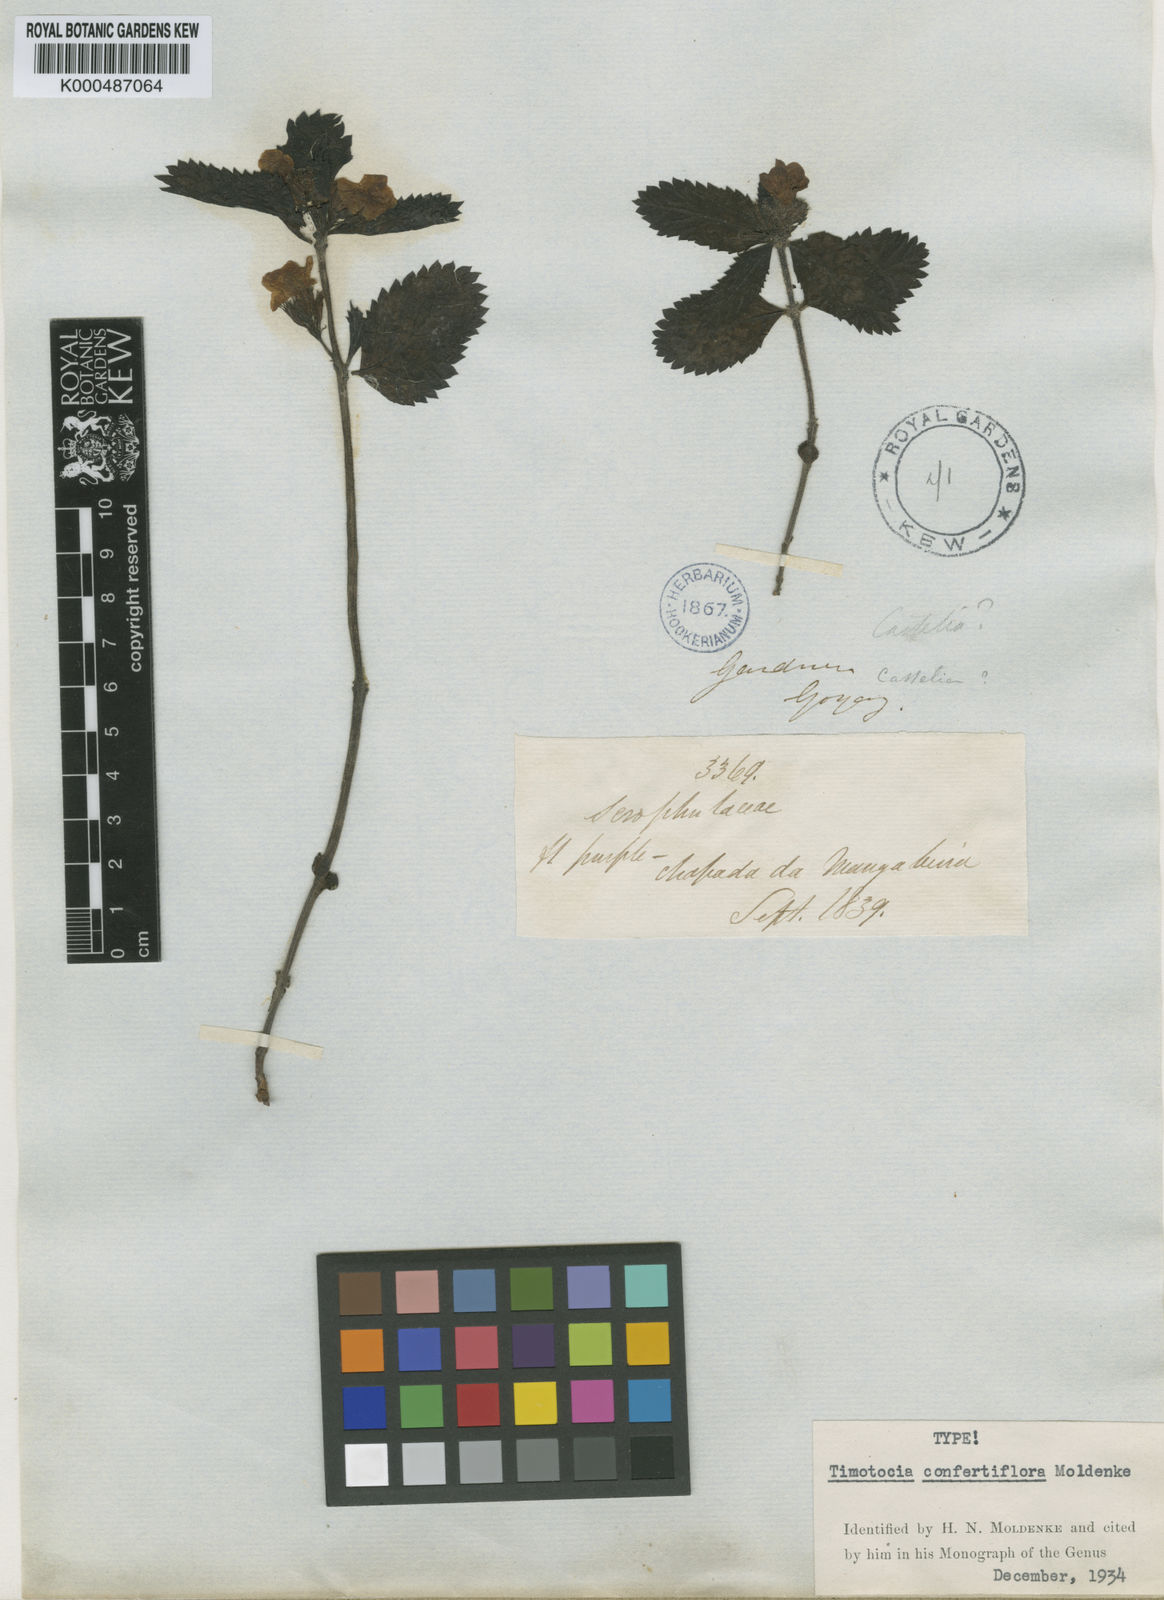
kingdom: Plantae
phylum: Tracheophyta
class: Magnoliopsida
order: Lamiales
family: Verbenaceae
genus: Casselia
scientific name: Casselia confertiflora
